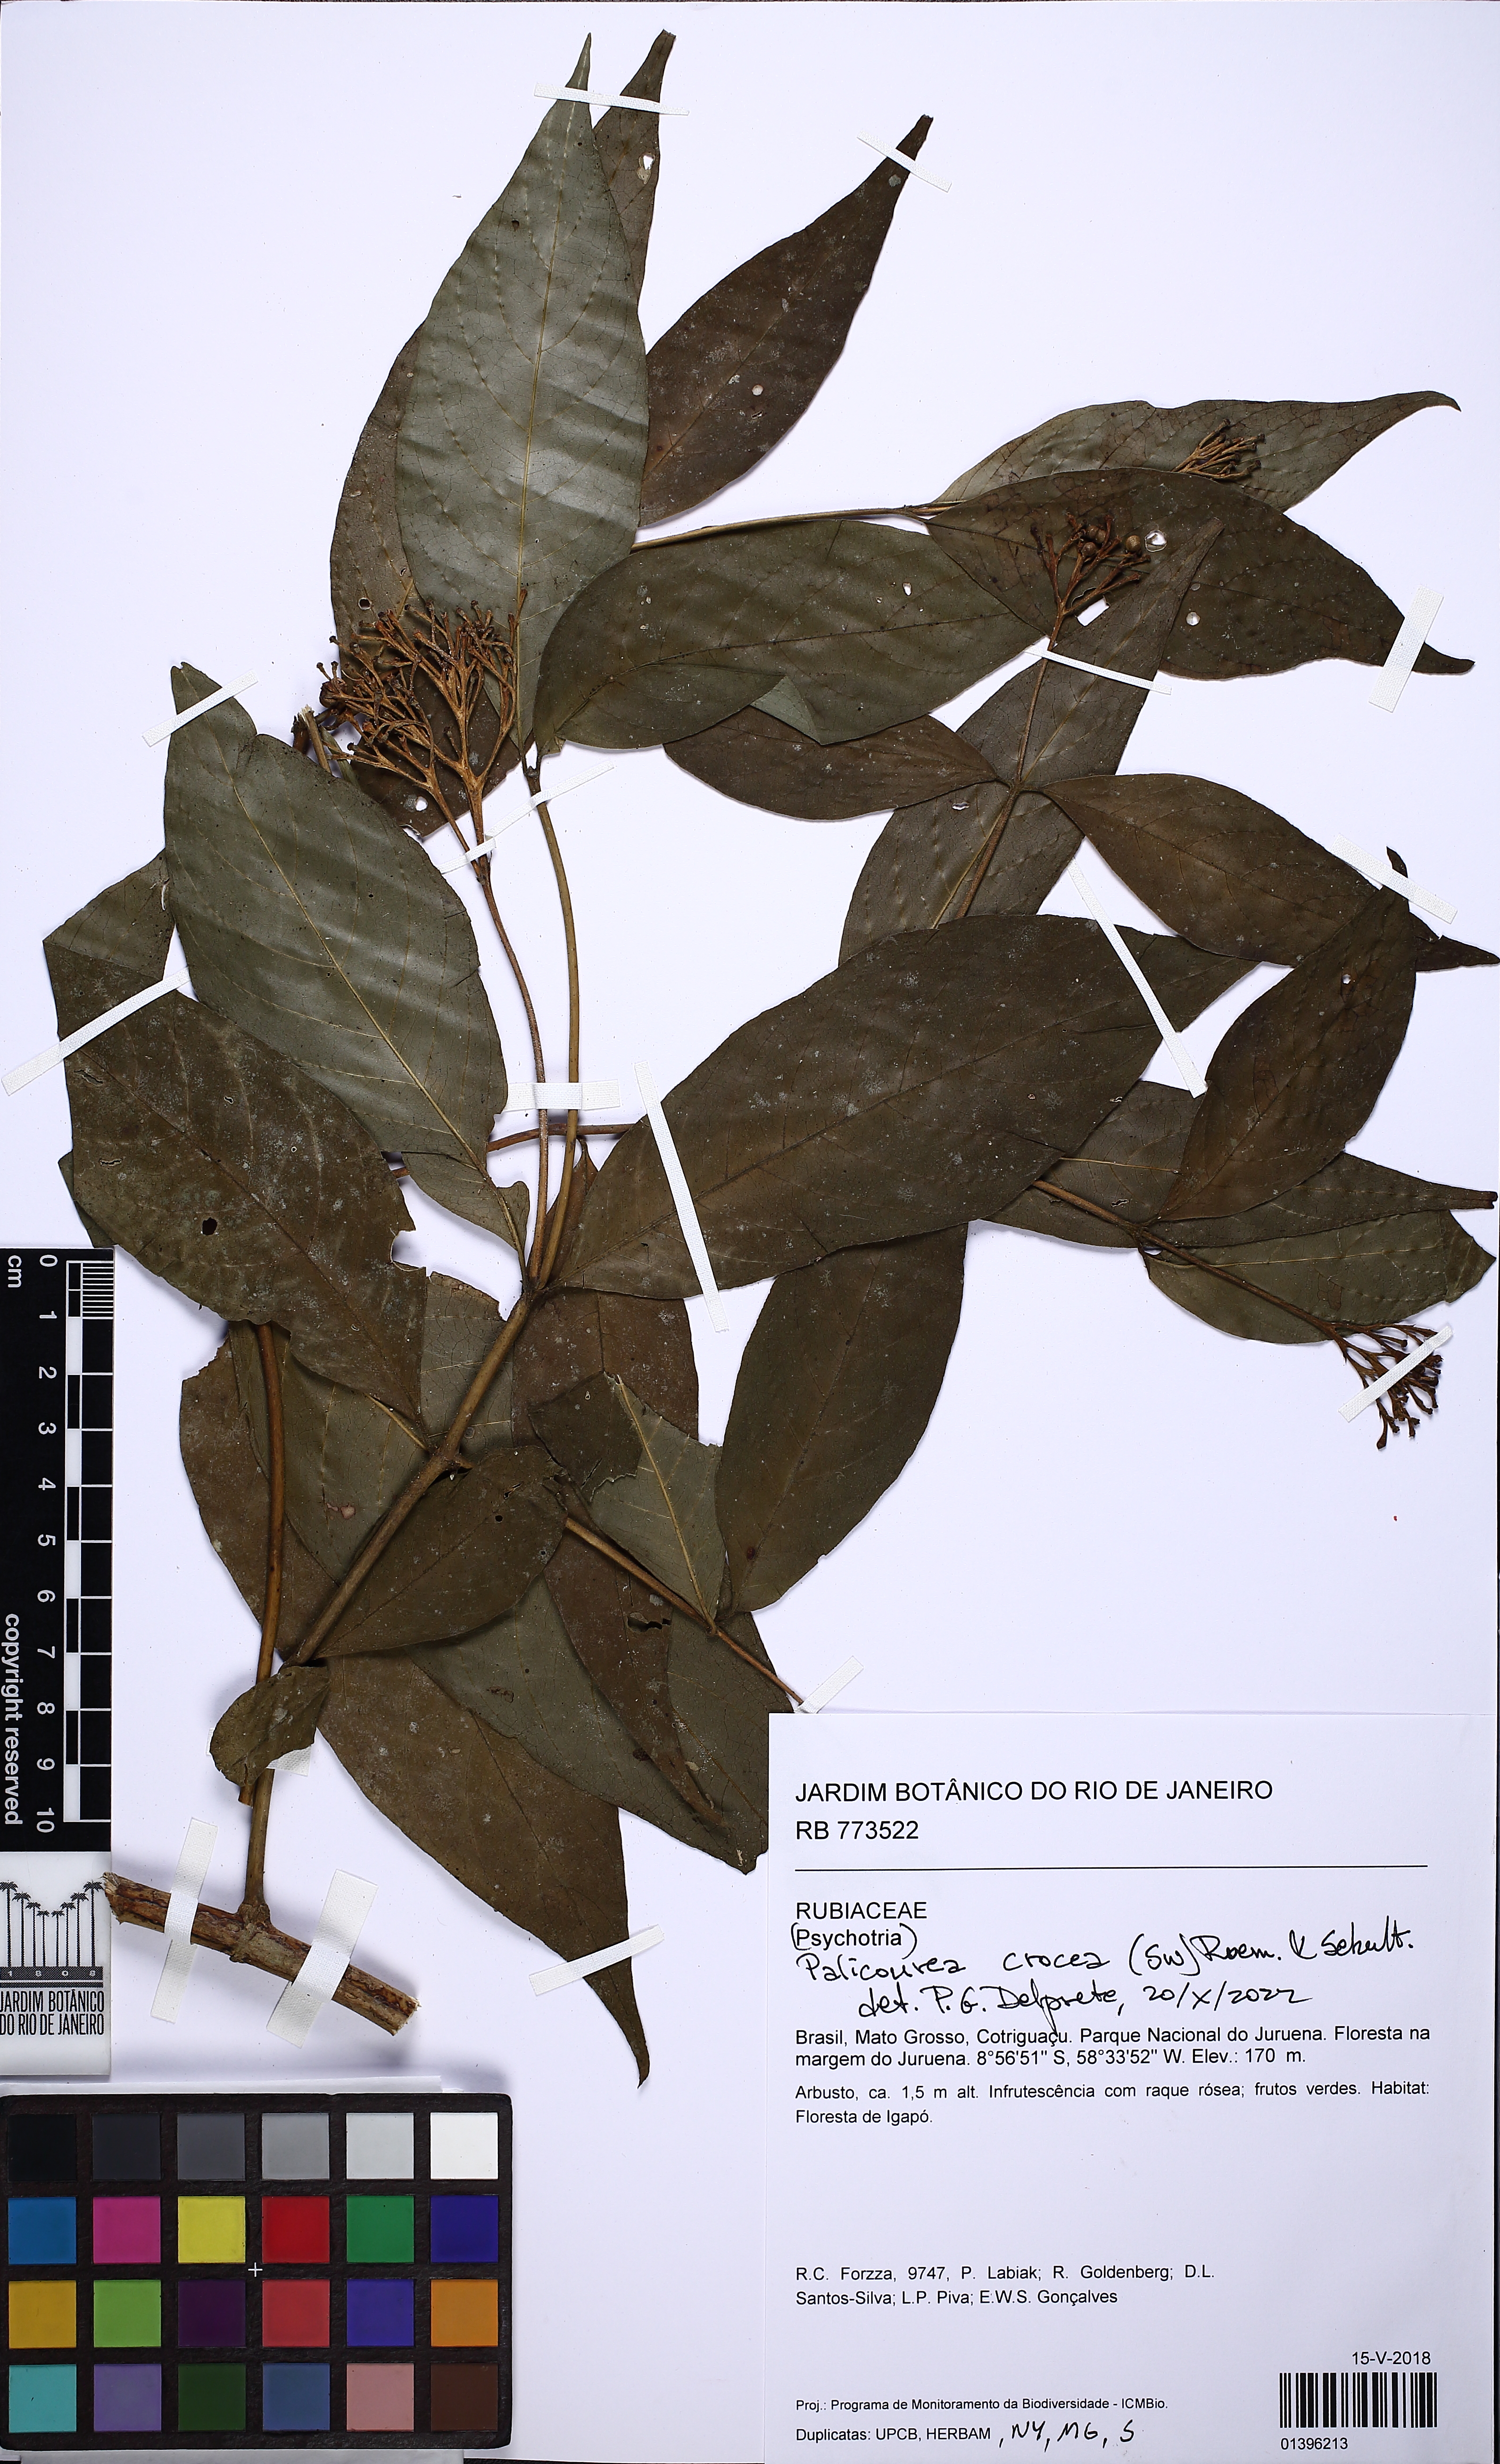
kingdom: Plantae
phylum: Tracheophyta
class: Magnoliopsida
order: Gentianales
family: Rubiaceae
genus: Palicourea
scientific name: Palicourea crocea
